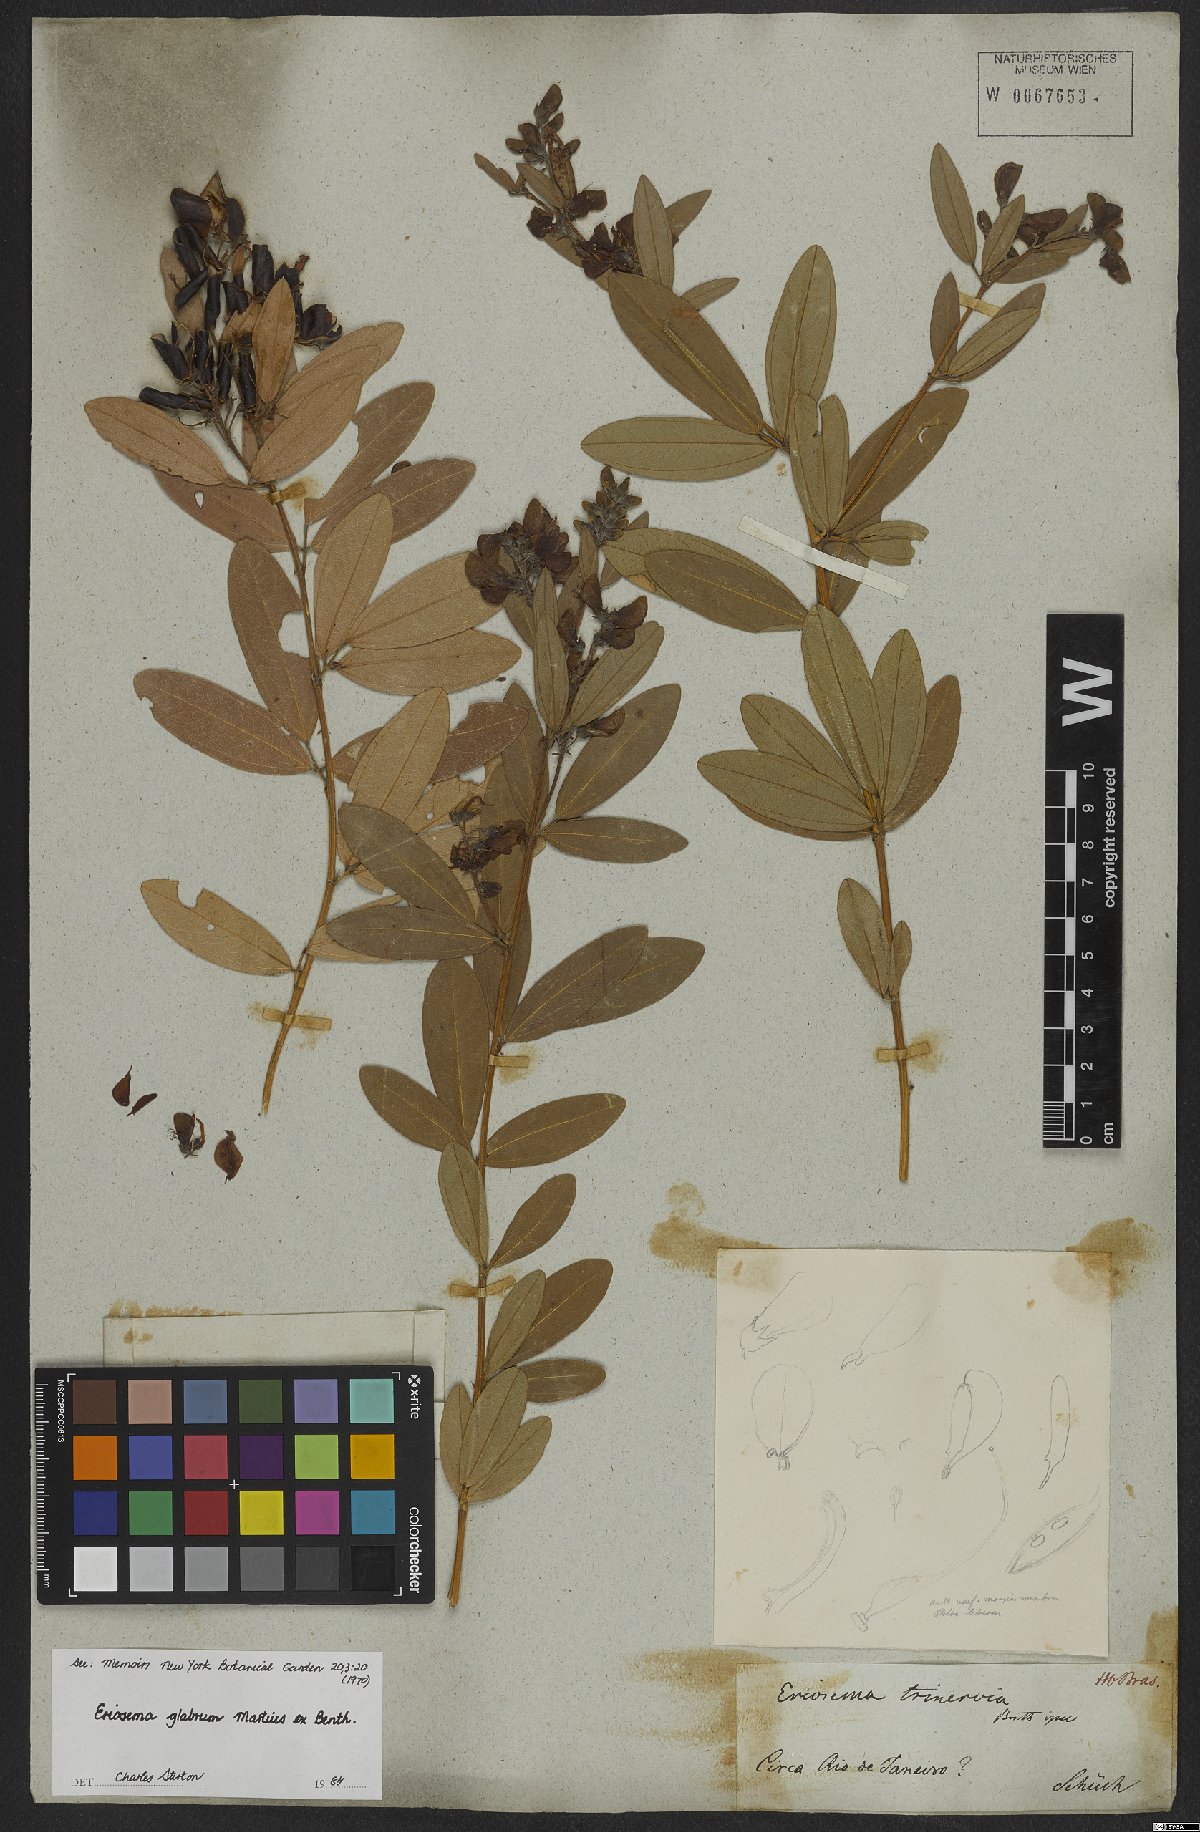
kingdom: Plantae
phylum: Tracheophyta
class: Magnoliopsida
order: Fabales
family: Fabaceae
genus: Eriosema
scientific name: Eriosema glabrum
